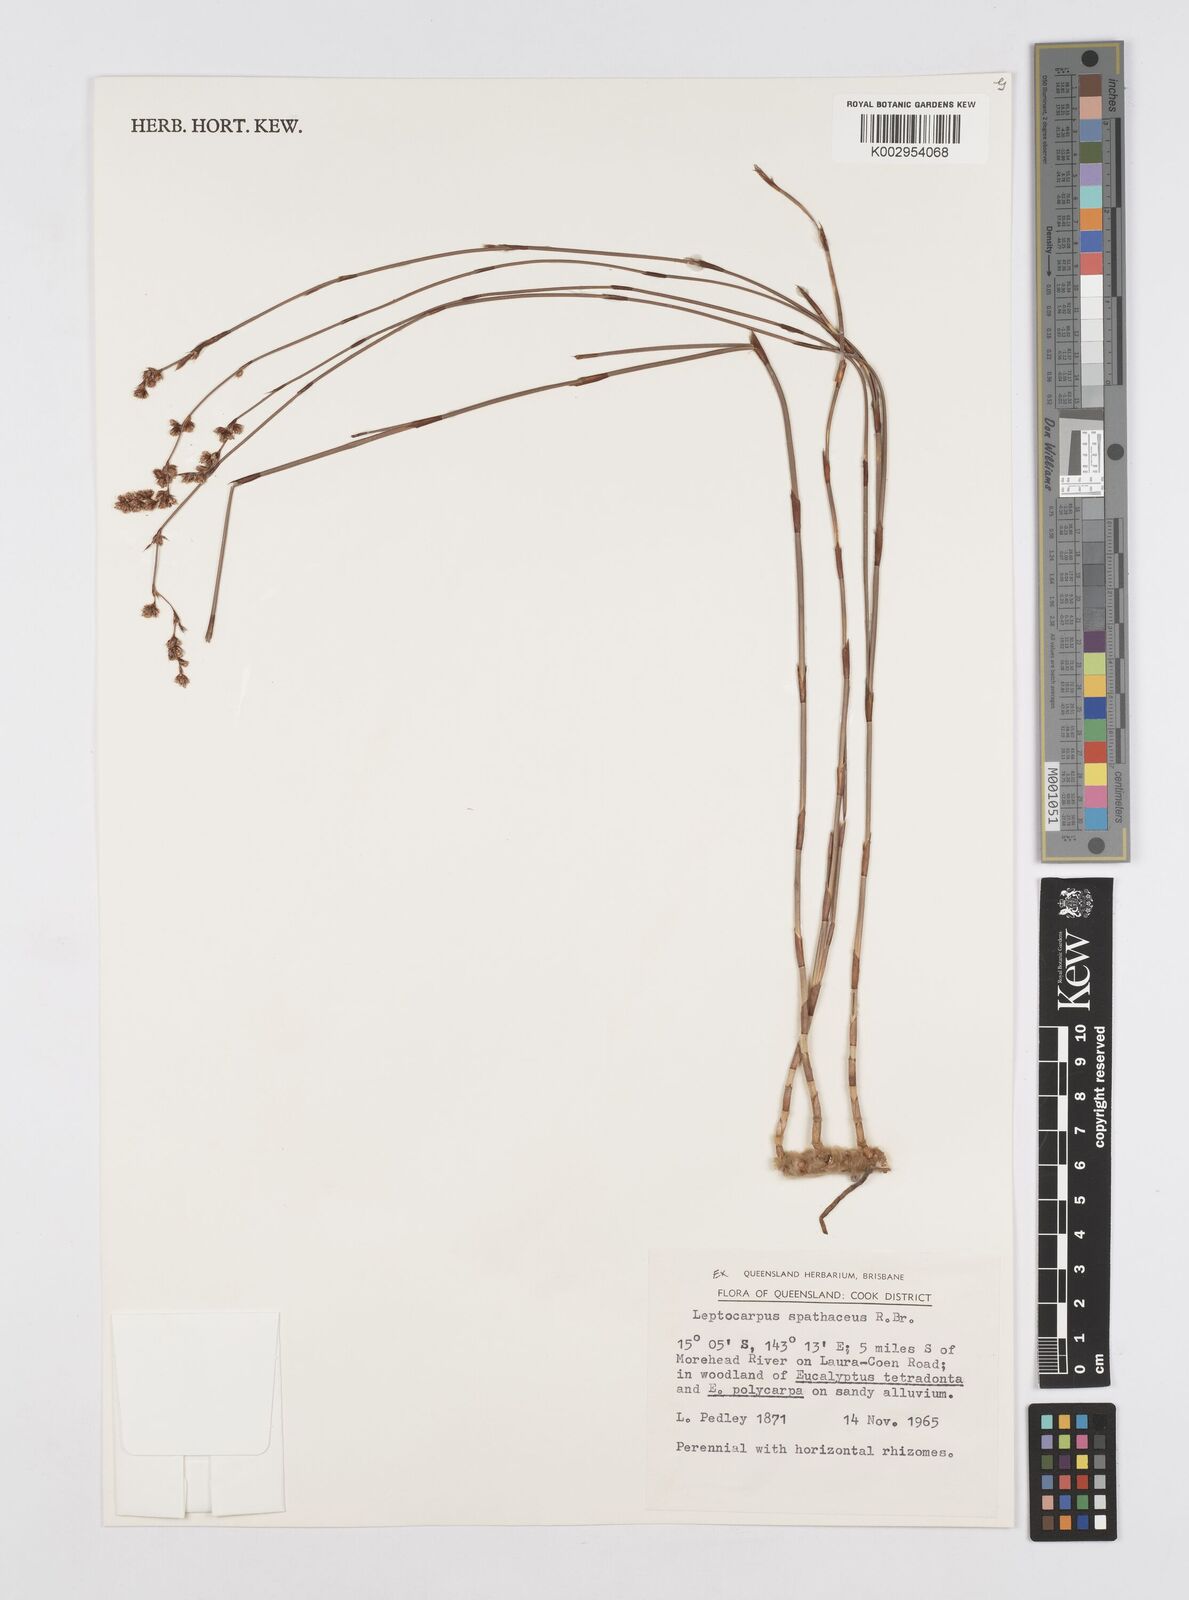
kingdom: Plantae
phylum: Tracheophyta
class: Liliopsida
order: Poales
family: Restionaceae
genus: Dapsilanthus
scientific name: Dapsilanthus spathaceus
